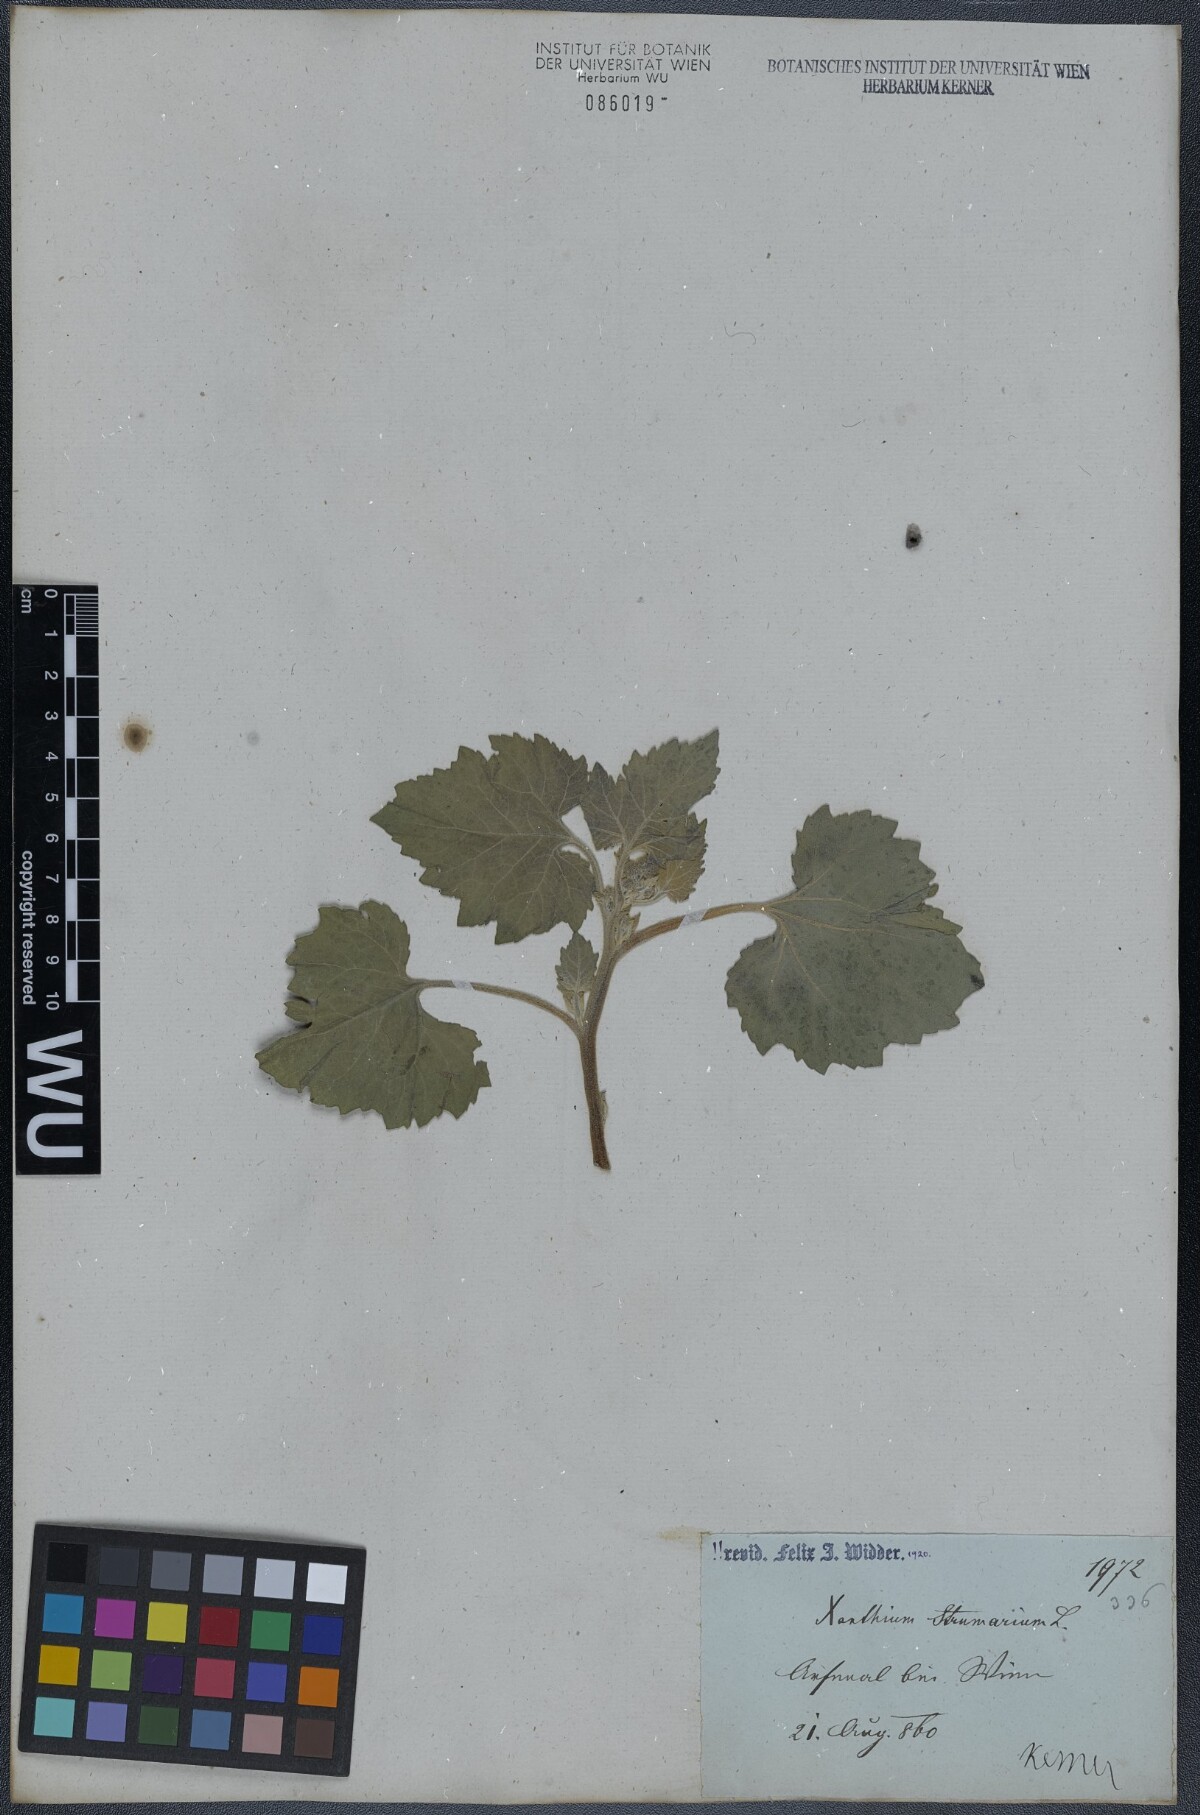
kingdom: Plantae
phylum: Tracheophyta
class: Magnoliopsida
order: Asterales
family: Asteraceae
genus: Xanthium
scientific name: Xanthium strumarium
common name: Rough cocklebur
